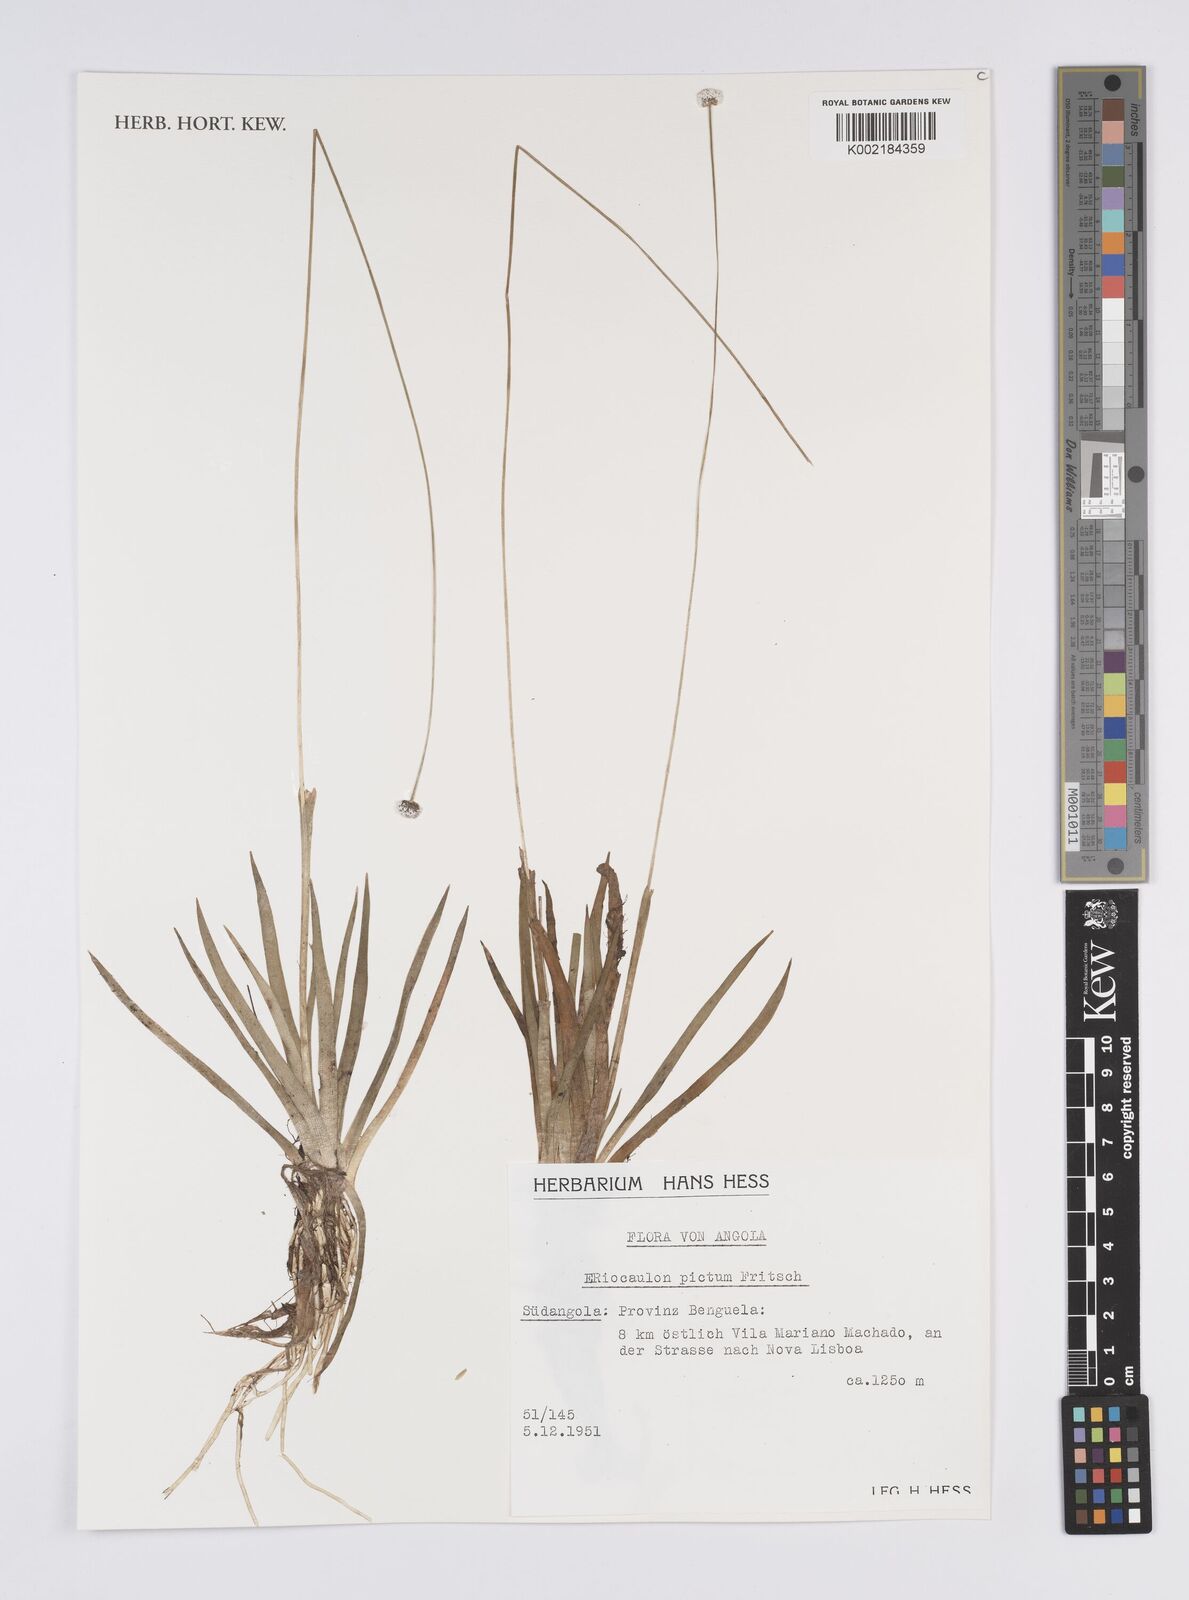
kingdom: Plantae
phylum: Tracheophyta
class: Liliopsida
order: Poales
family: Eriocaulaceae
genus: Eriocaulon
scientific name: Eriocaulon pictum
